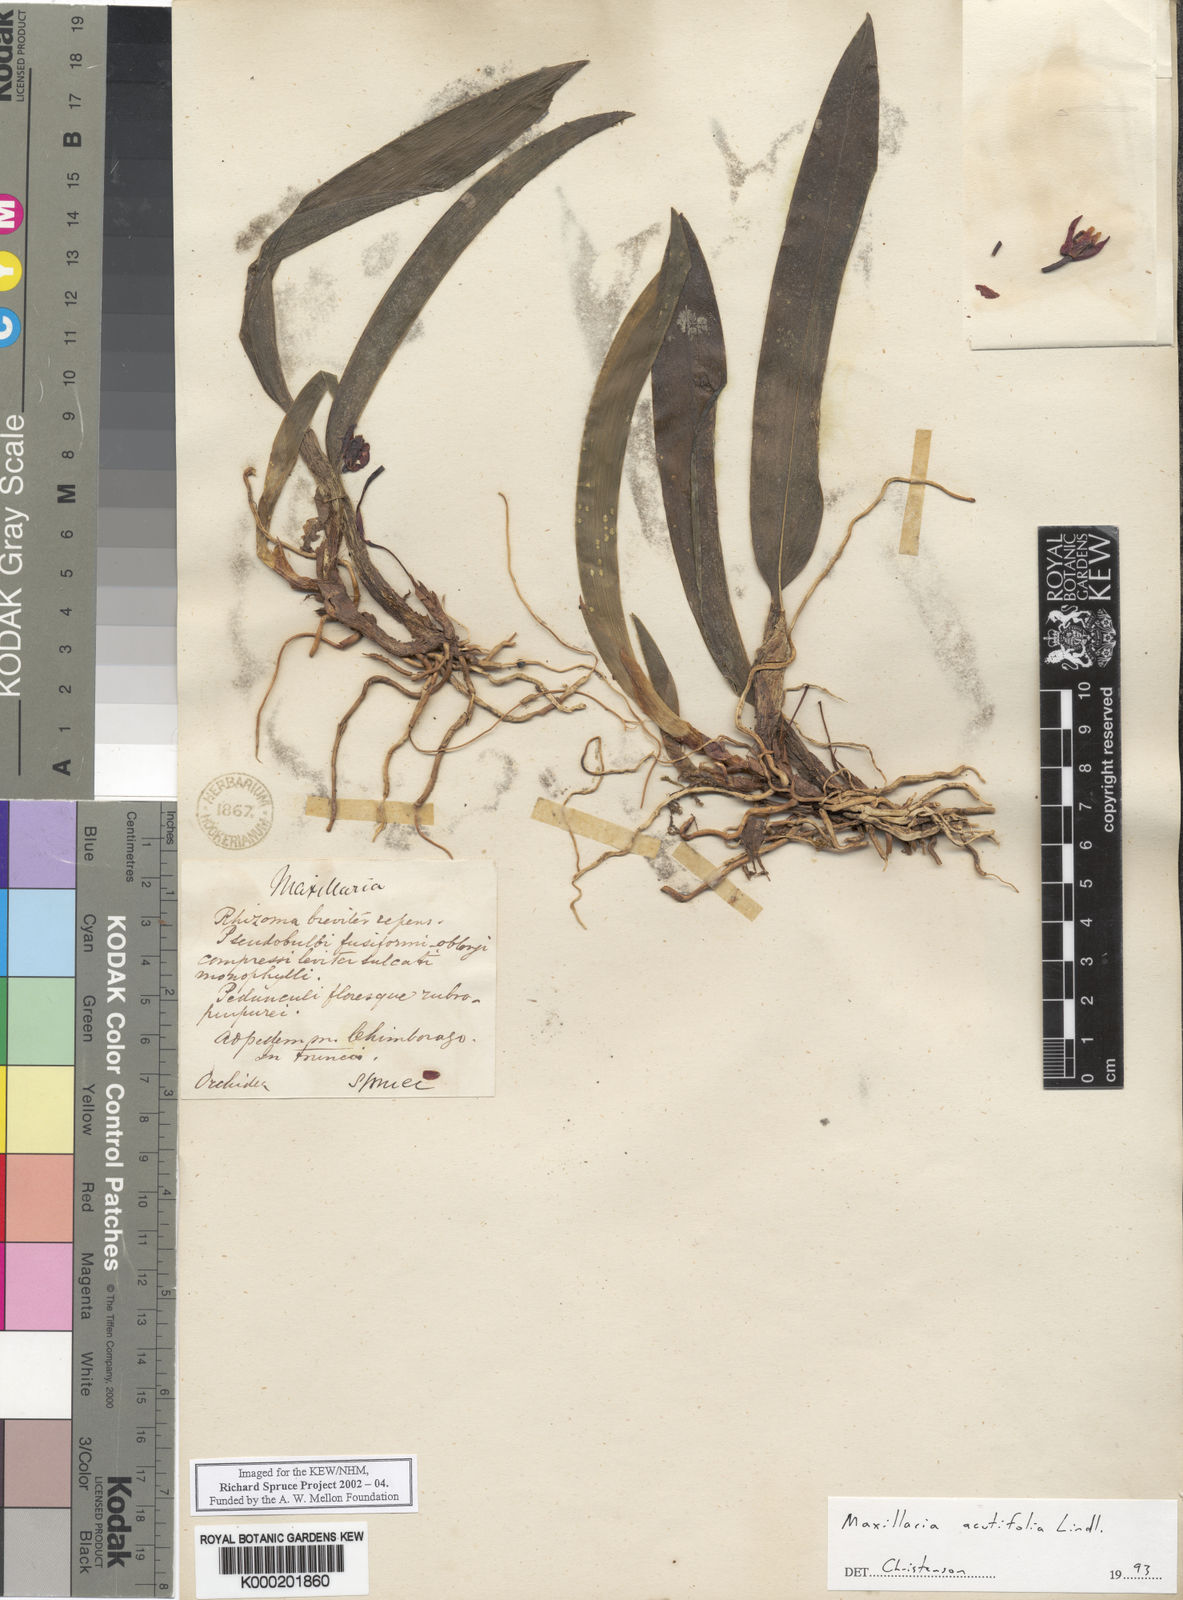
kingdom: Plantae
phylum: Tracheophyta
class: Liliopsida
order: Asparagales
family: Orchidaceae
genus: Maxillaria
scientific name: Maxillaria acutifolia
